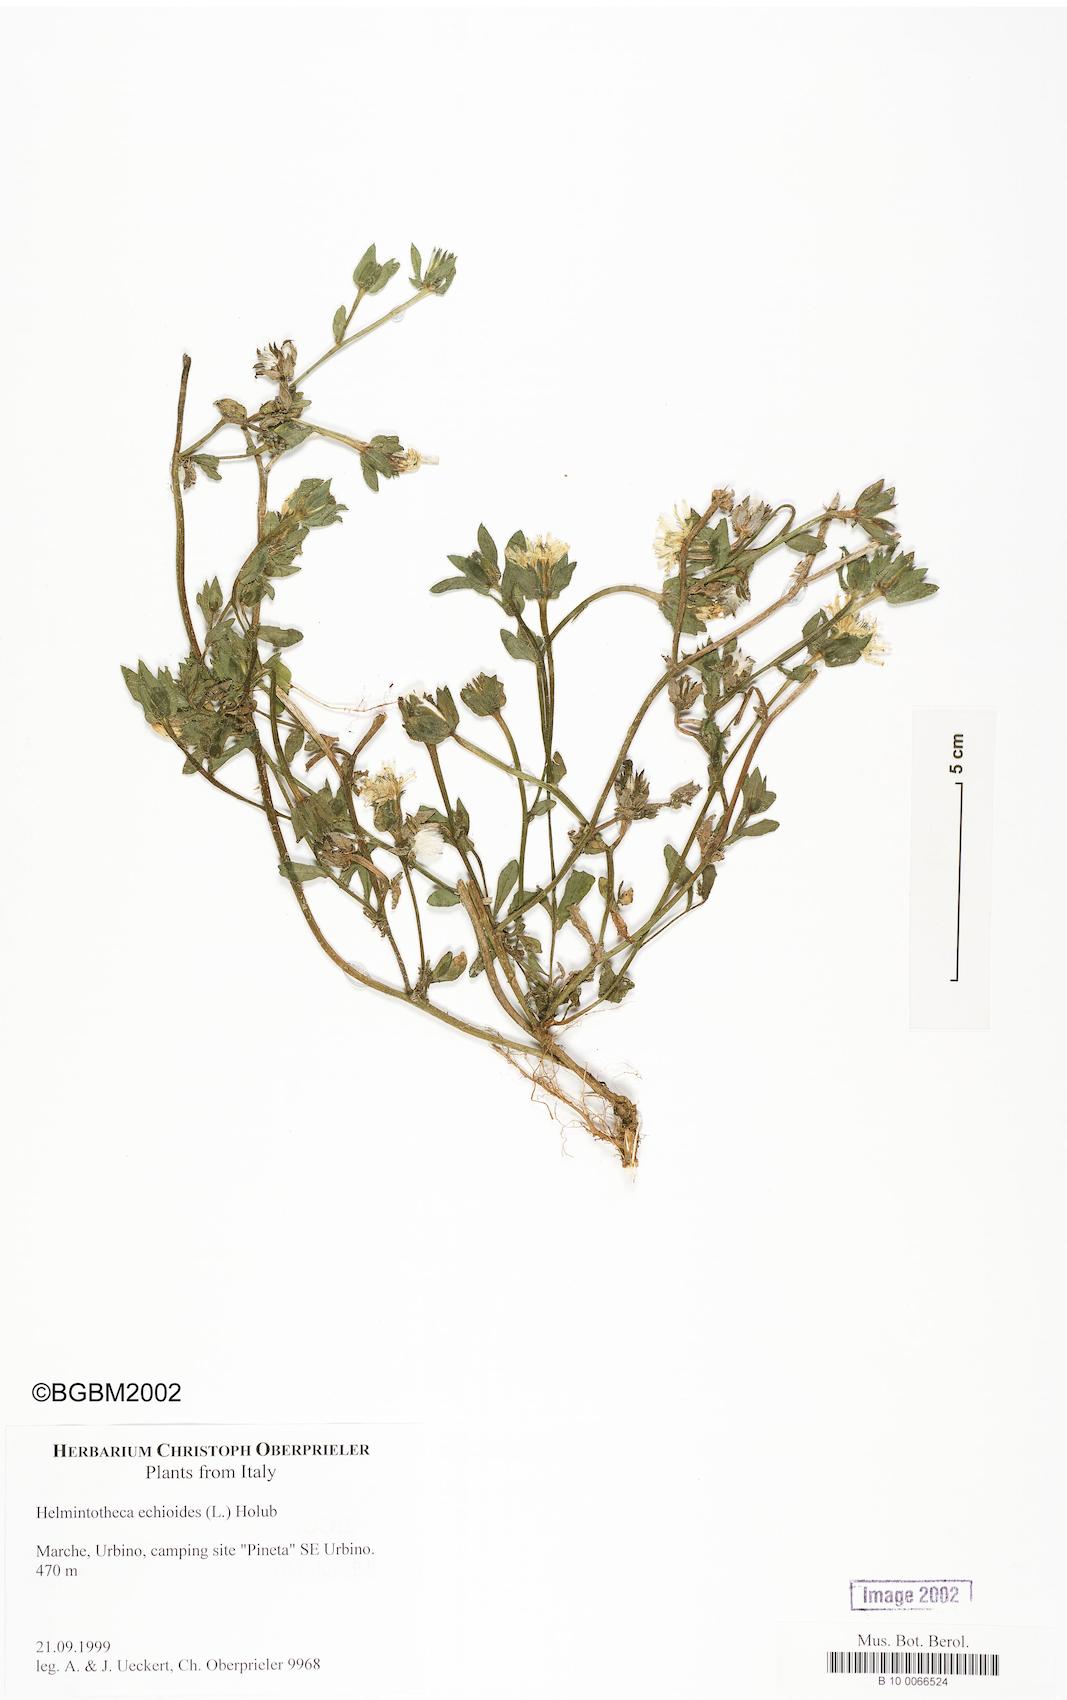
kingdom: Plantae
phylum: Tracheophyta
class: Magnoliopsida
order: Asterales
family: Asteraceae
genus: Helminthotheca
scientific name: Helminthotheca echioides
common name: Ox-tongue
